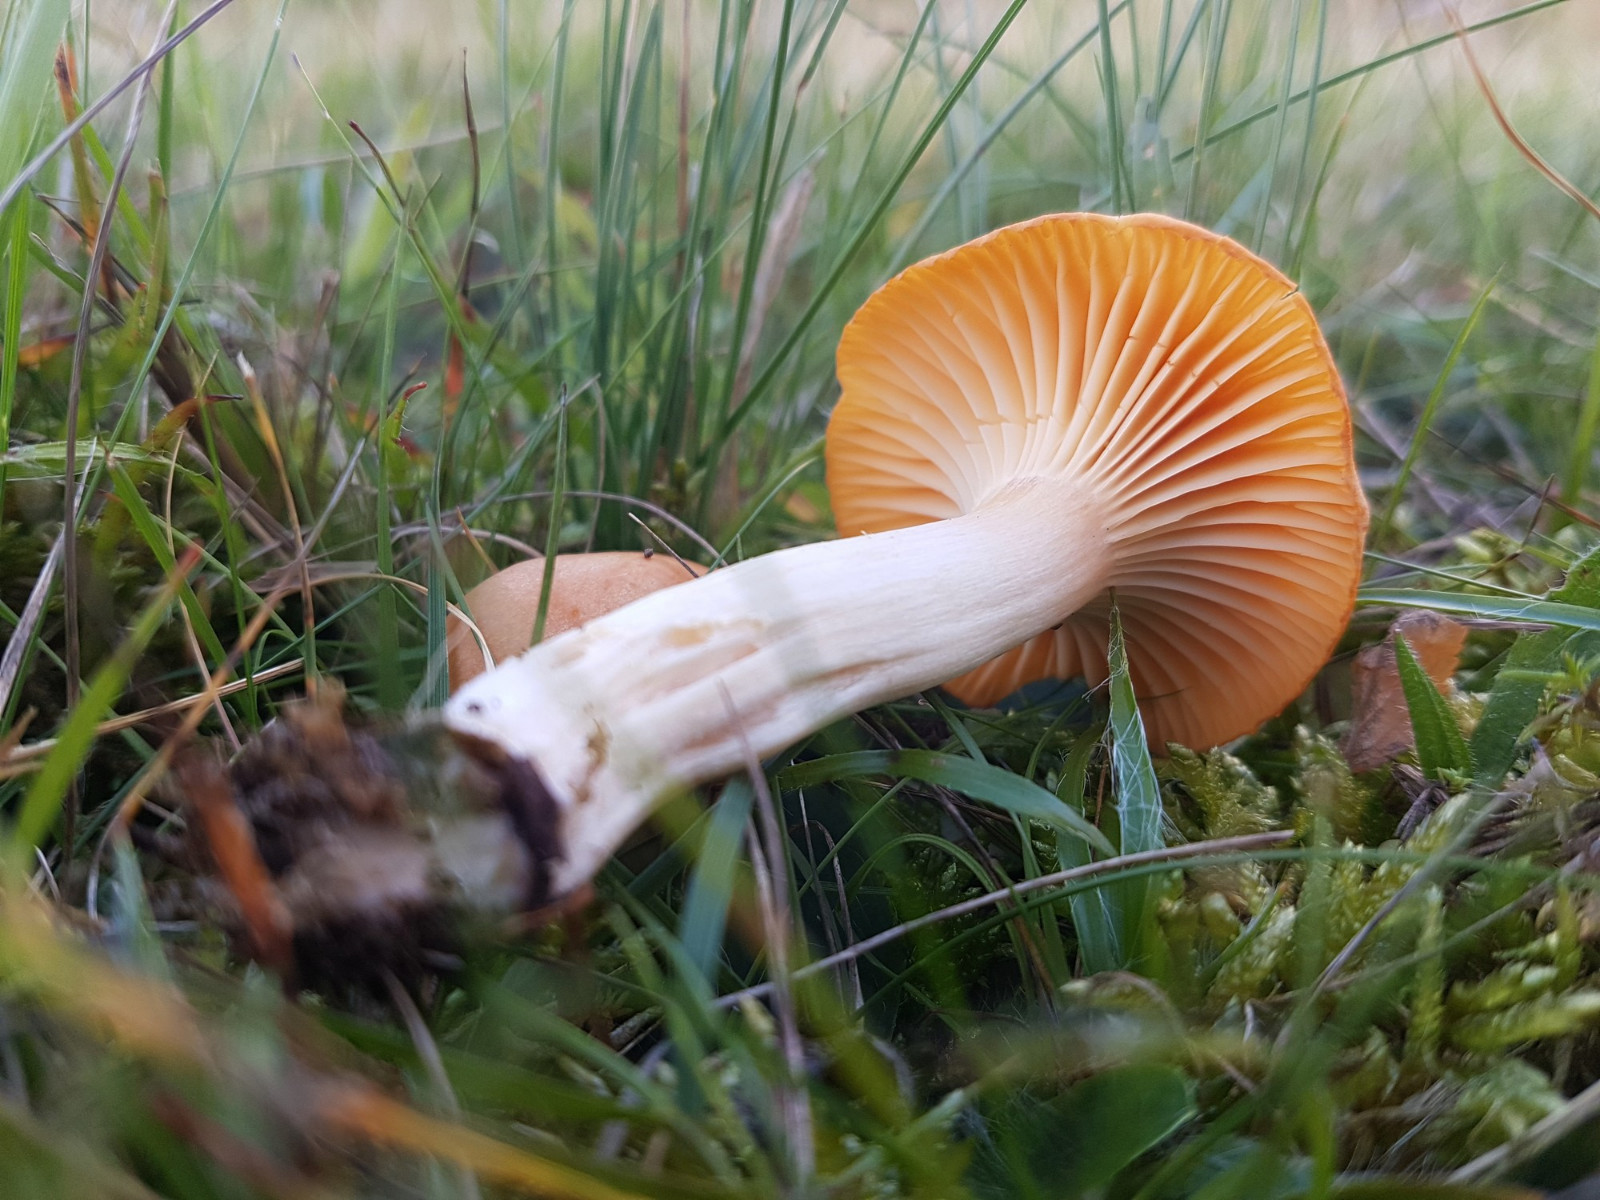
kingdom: Fungi
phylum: Basidiomycota
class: Agaricomycetes
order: Agaricales
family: Hygrophoraceae
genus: Cuphophyllus
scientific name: Cuphophyllus pratensis
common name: eng-vokshat
